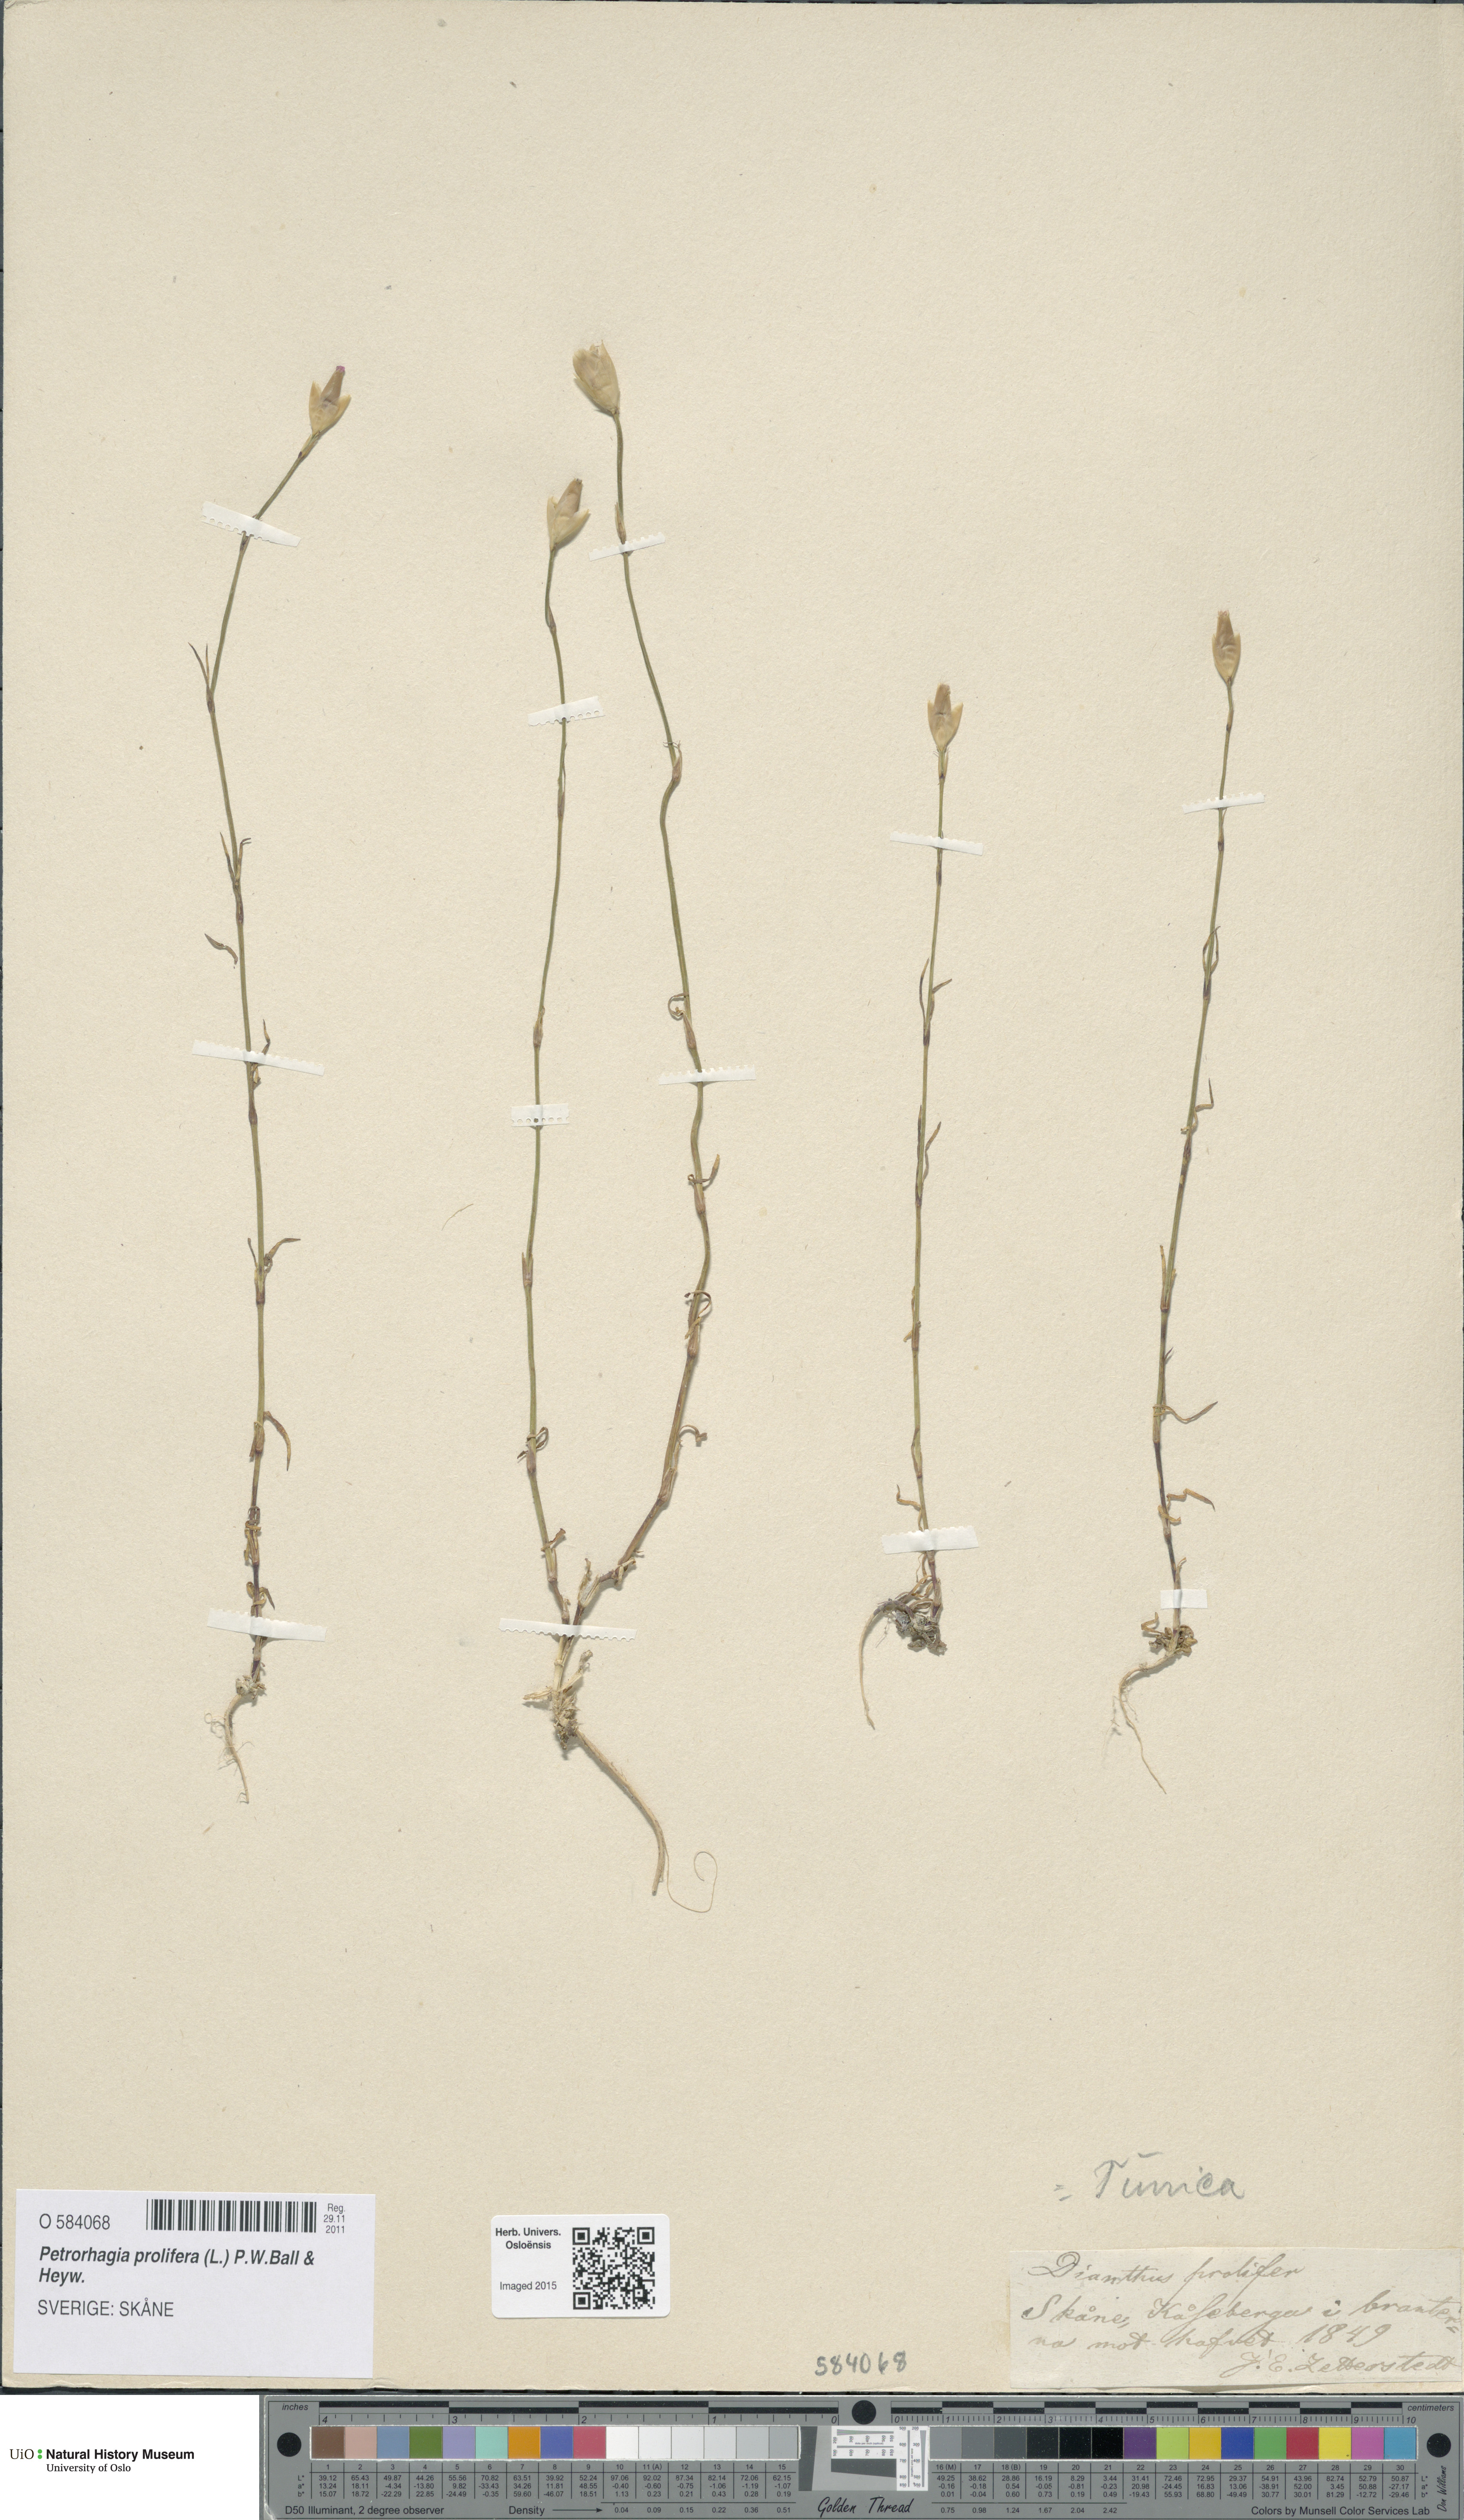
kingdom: Plantae
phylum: Tracheophyta
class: Magnoliopsida
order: Caryophyllales
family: Caryophyllaceae
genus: Petrorhagia
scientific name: Petrorhagia prolifera
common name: Proliferous pink
